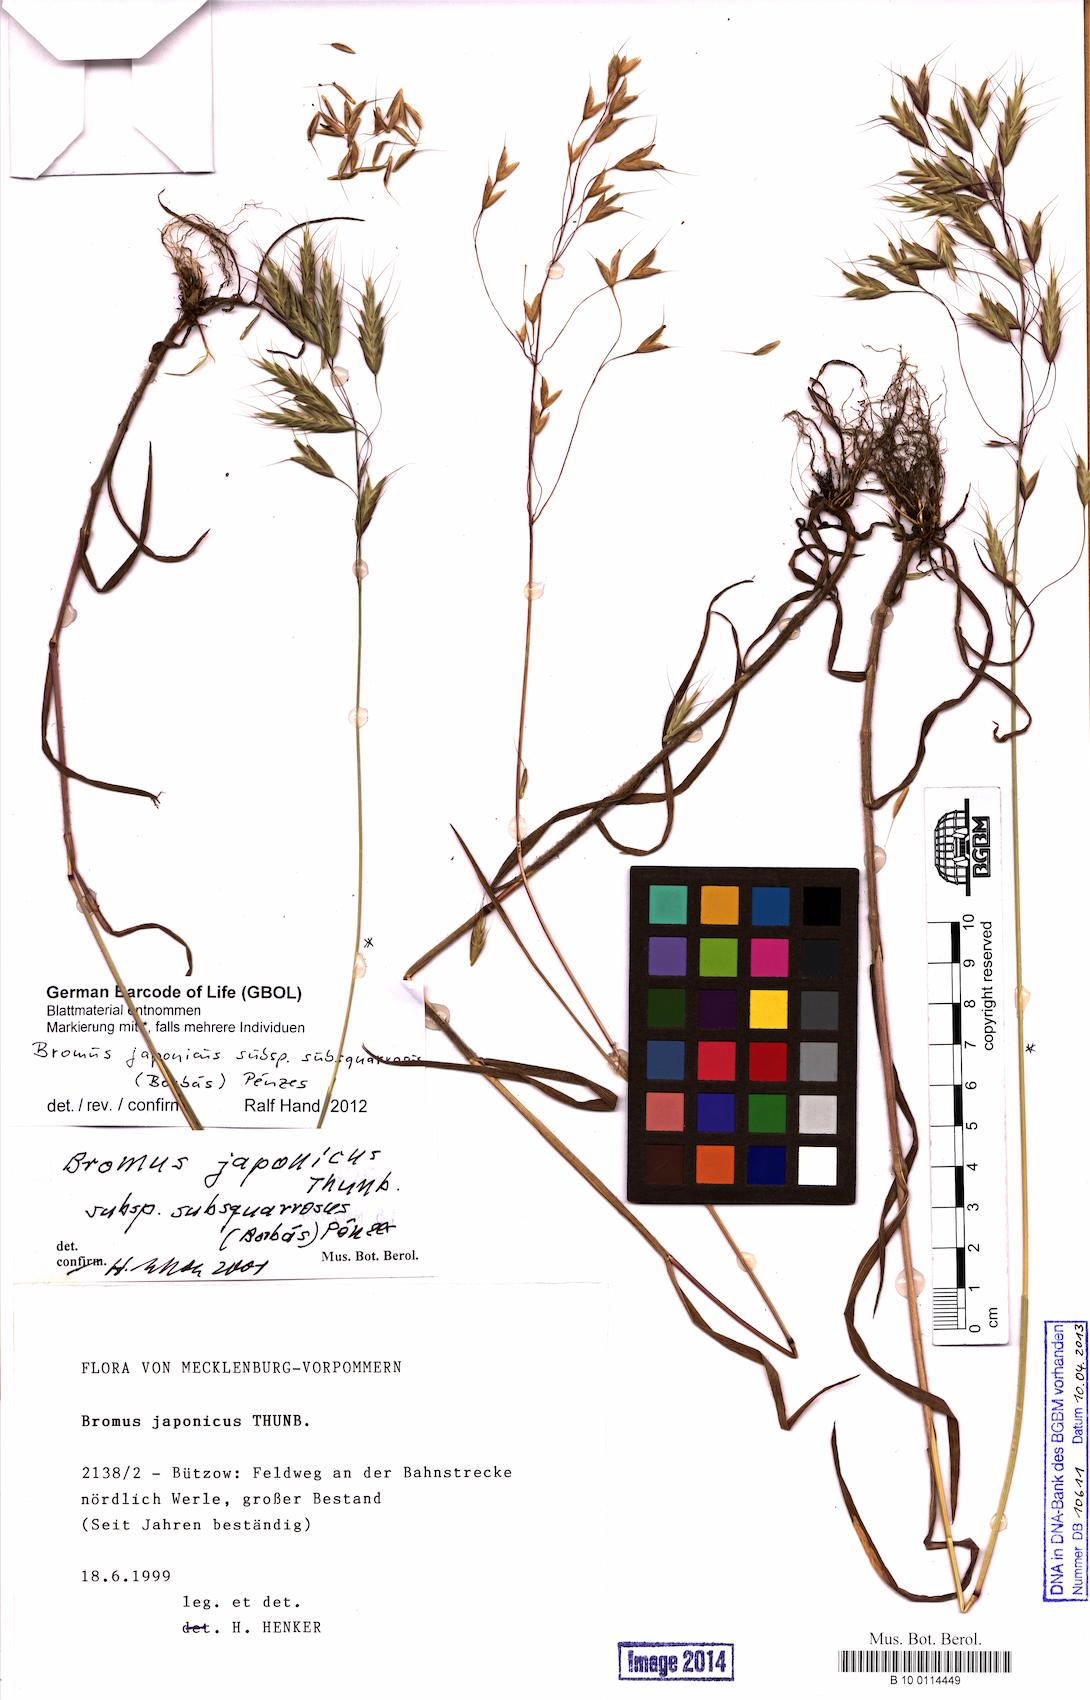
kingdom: Plantae
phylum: Tracheophyta
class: Liliopsida
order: Poales
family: Poaceae
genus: Bromus
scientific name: Bromus japonicus
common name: Japanese brome
